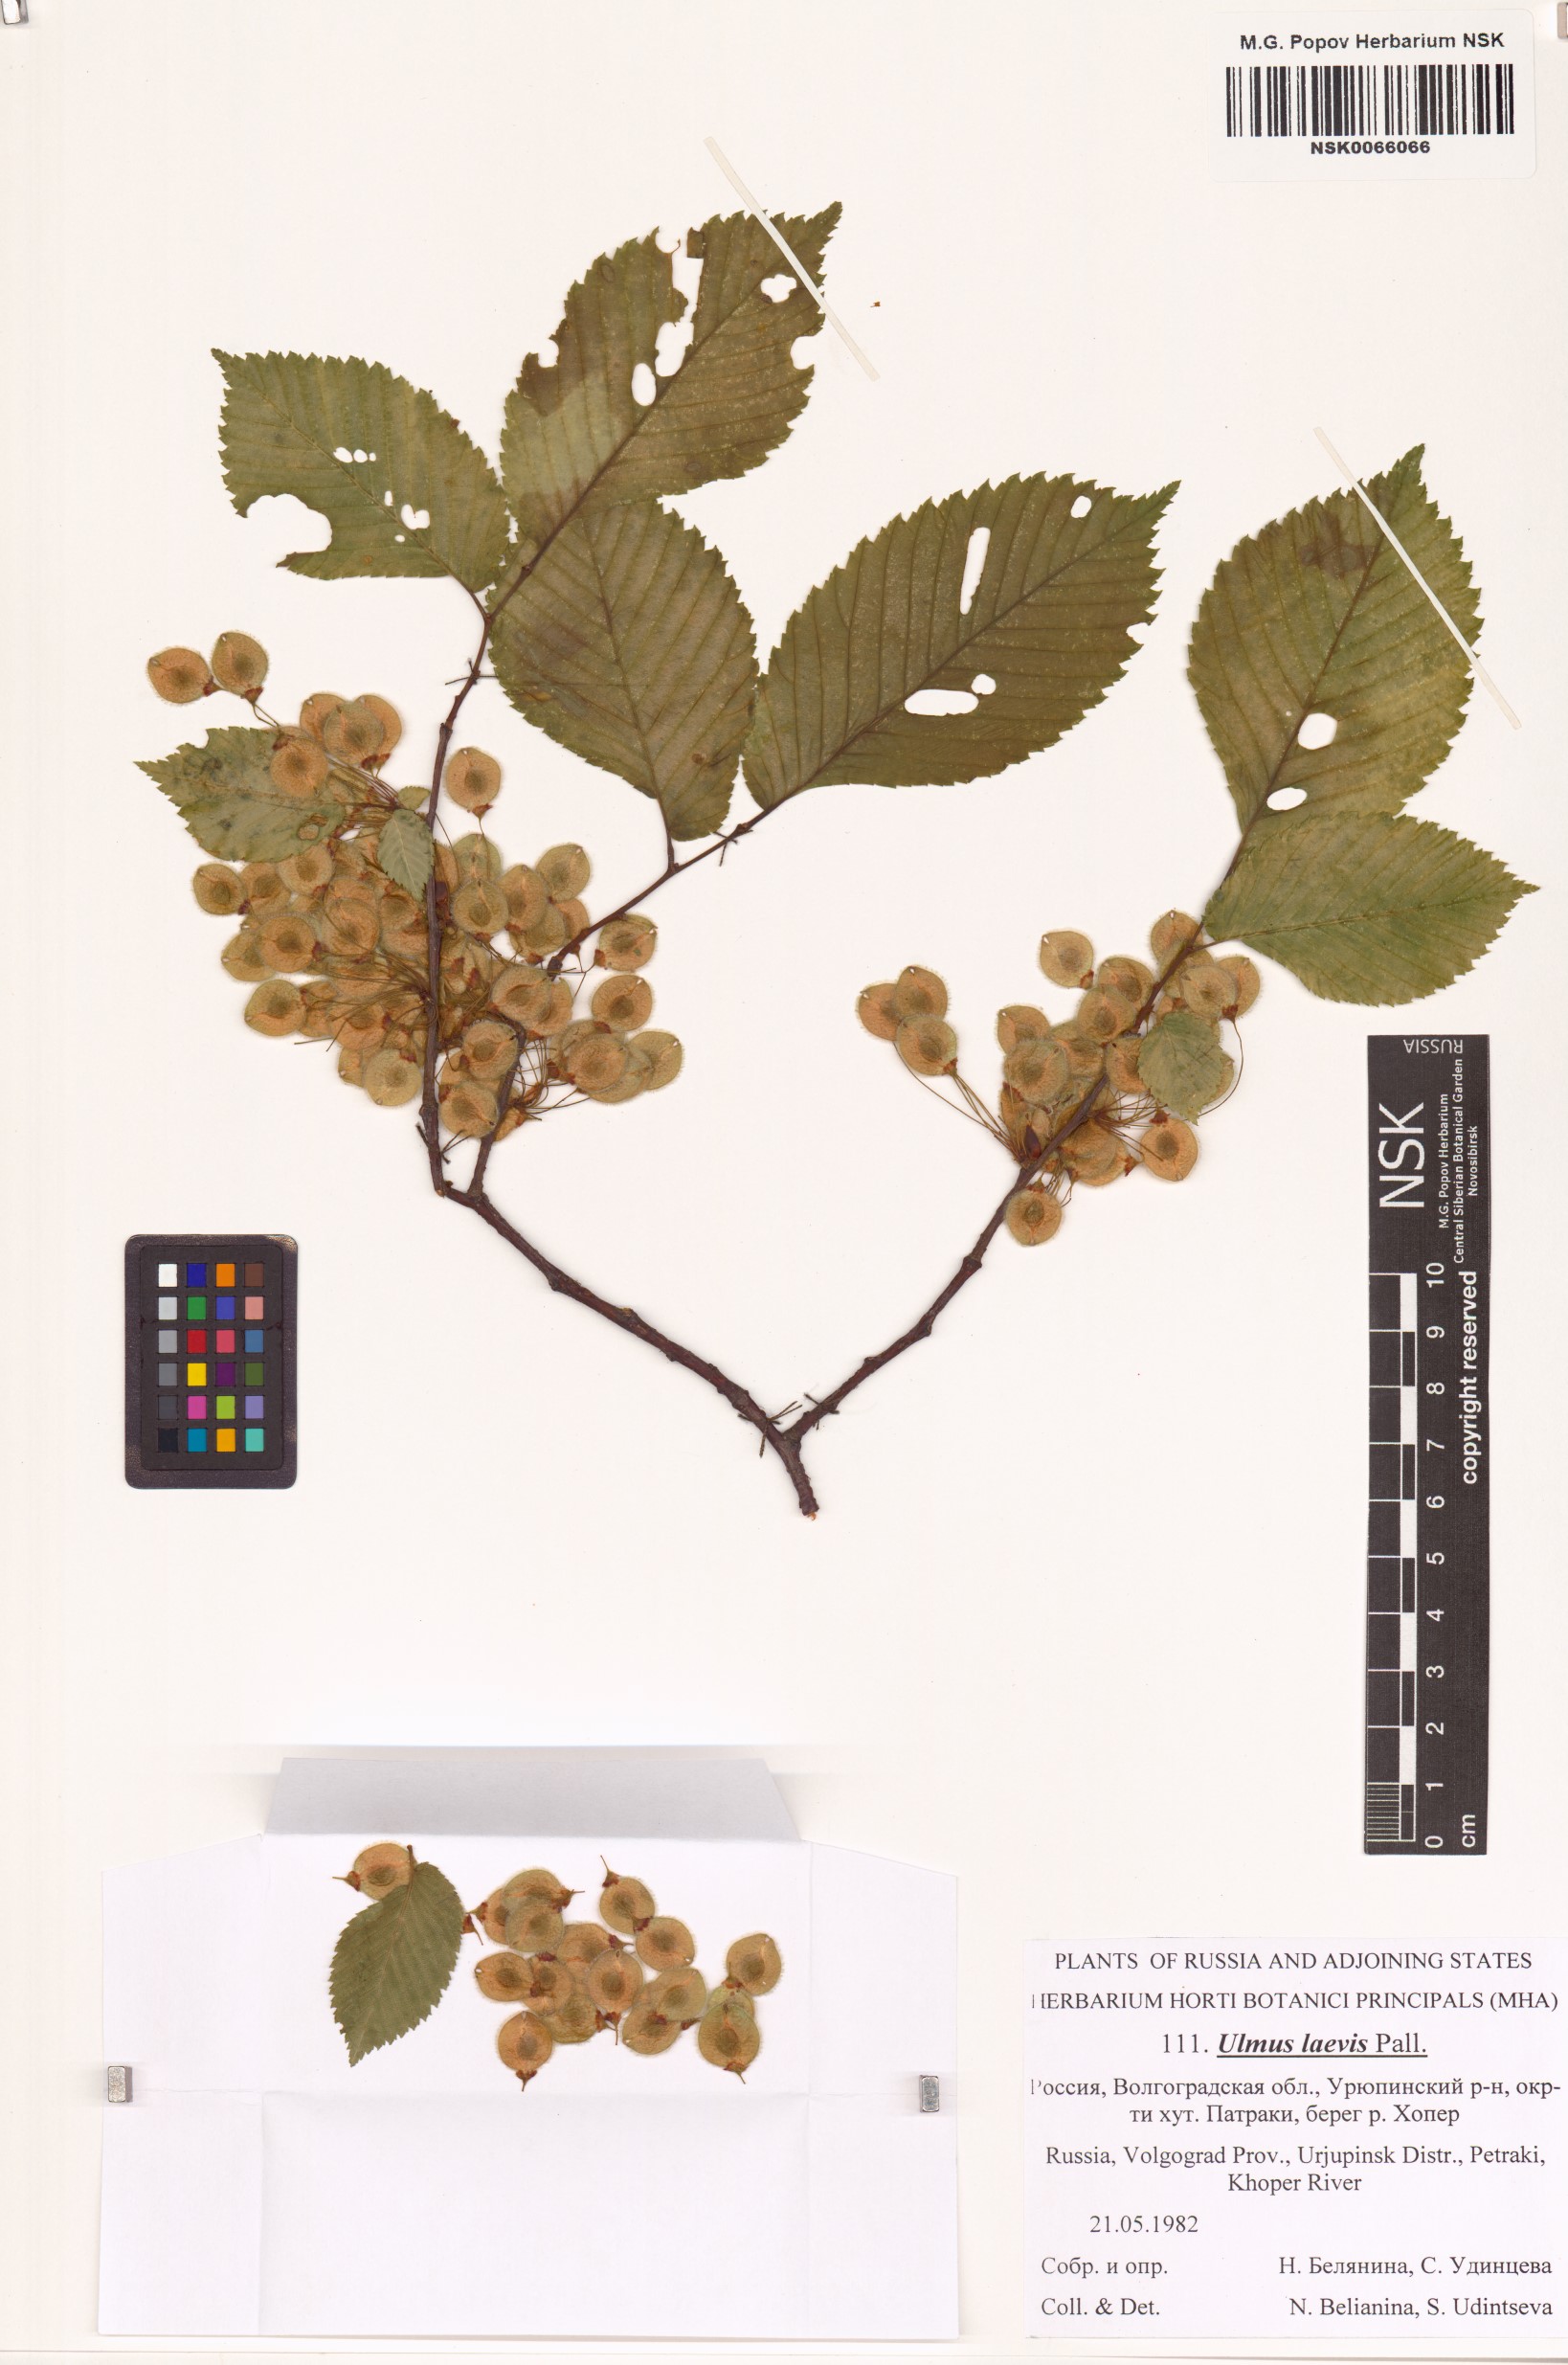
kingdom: Plantae
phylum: Tracheophyta
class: Magnoliopsida
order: Rosales
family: Ulmaceae
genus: Ulmus
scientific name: Ulmus laevis
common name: European white-elm
